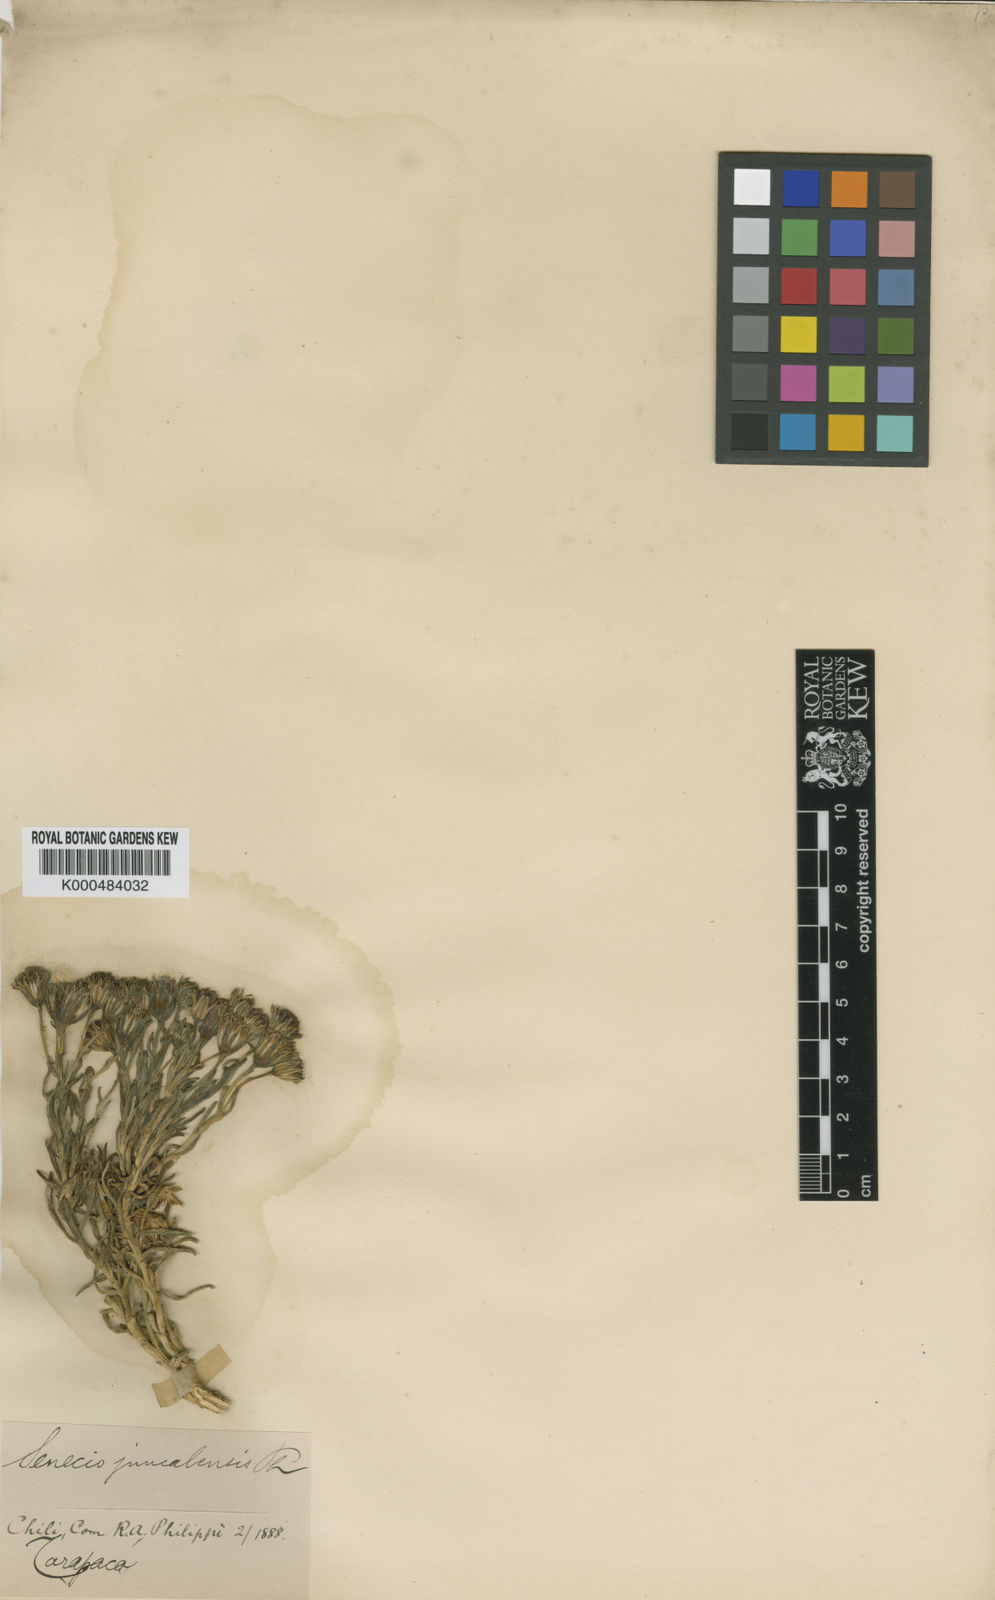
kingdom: Plantae
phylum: Tracheophyta
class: Magnoliopsida
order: Asterales
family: Asteraceae
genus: Senecio
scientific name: Senecio chrysolepis
